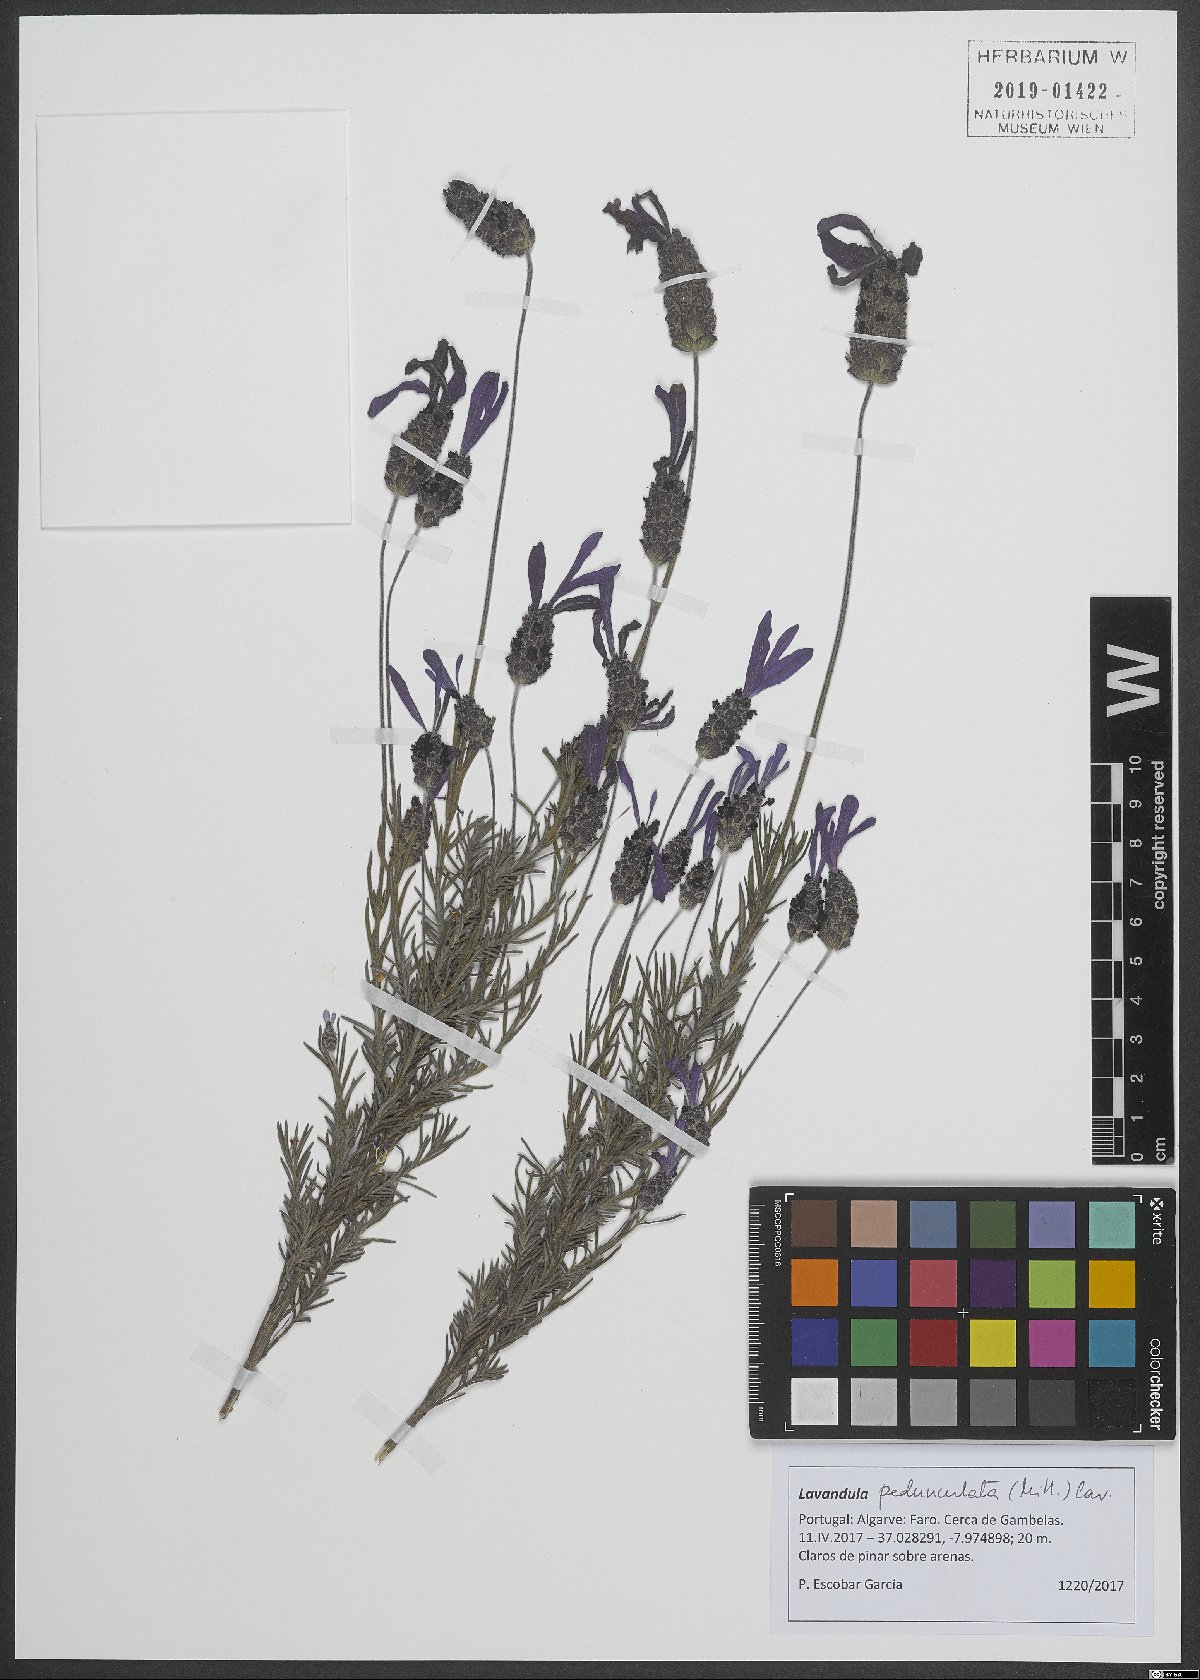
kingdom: Plantae
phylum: Tracheophyta
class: Magnoliopsida
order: Lamiales
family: Lamiaceae
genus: Lavandula
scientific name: Lavandula pedunculata
